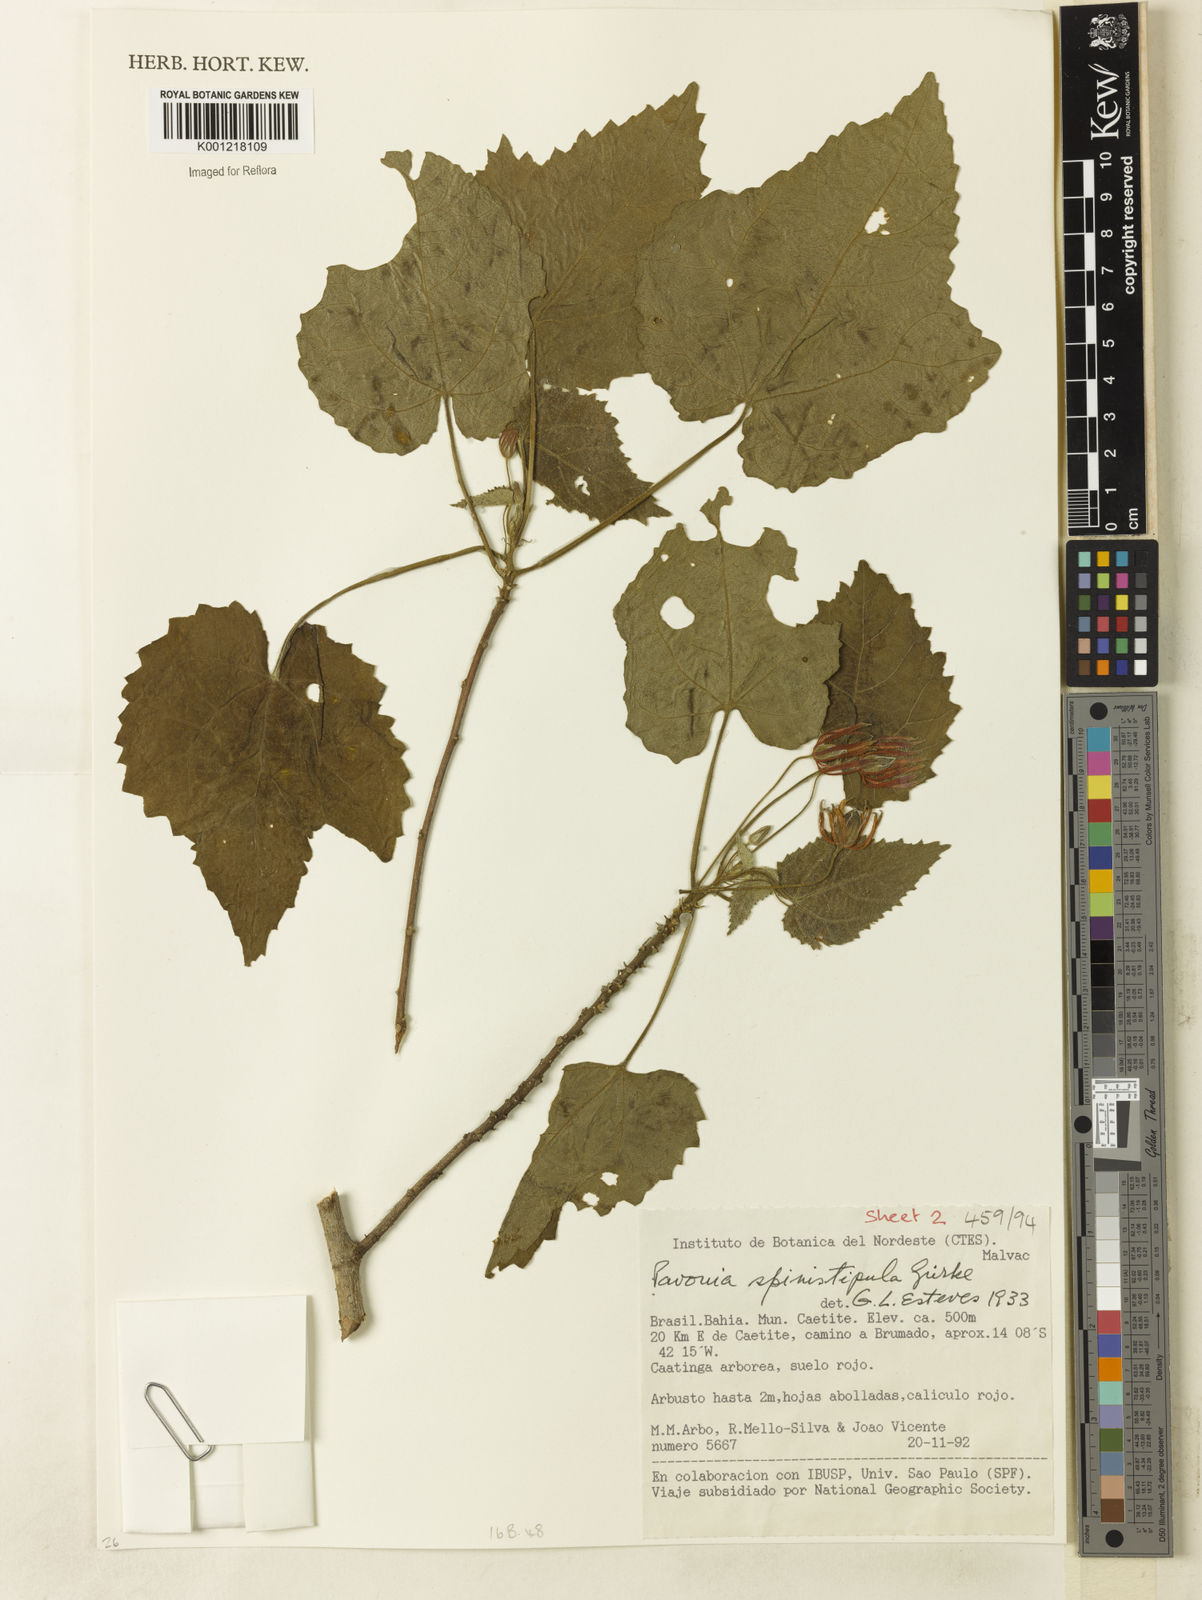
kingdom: Plantae
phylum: Tracheophyta
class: Magnoliopsida
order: Malvales
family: Malvaceae
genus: Pavonia
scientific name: Pavonia
